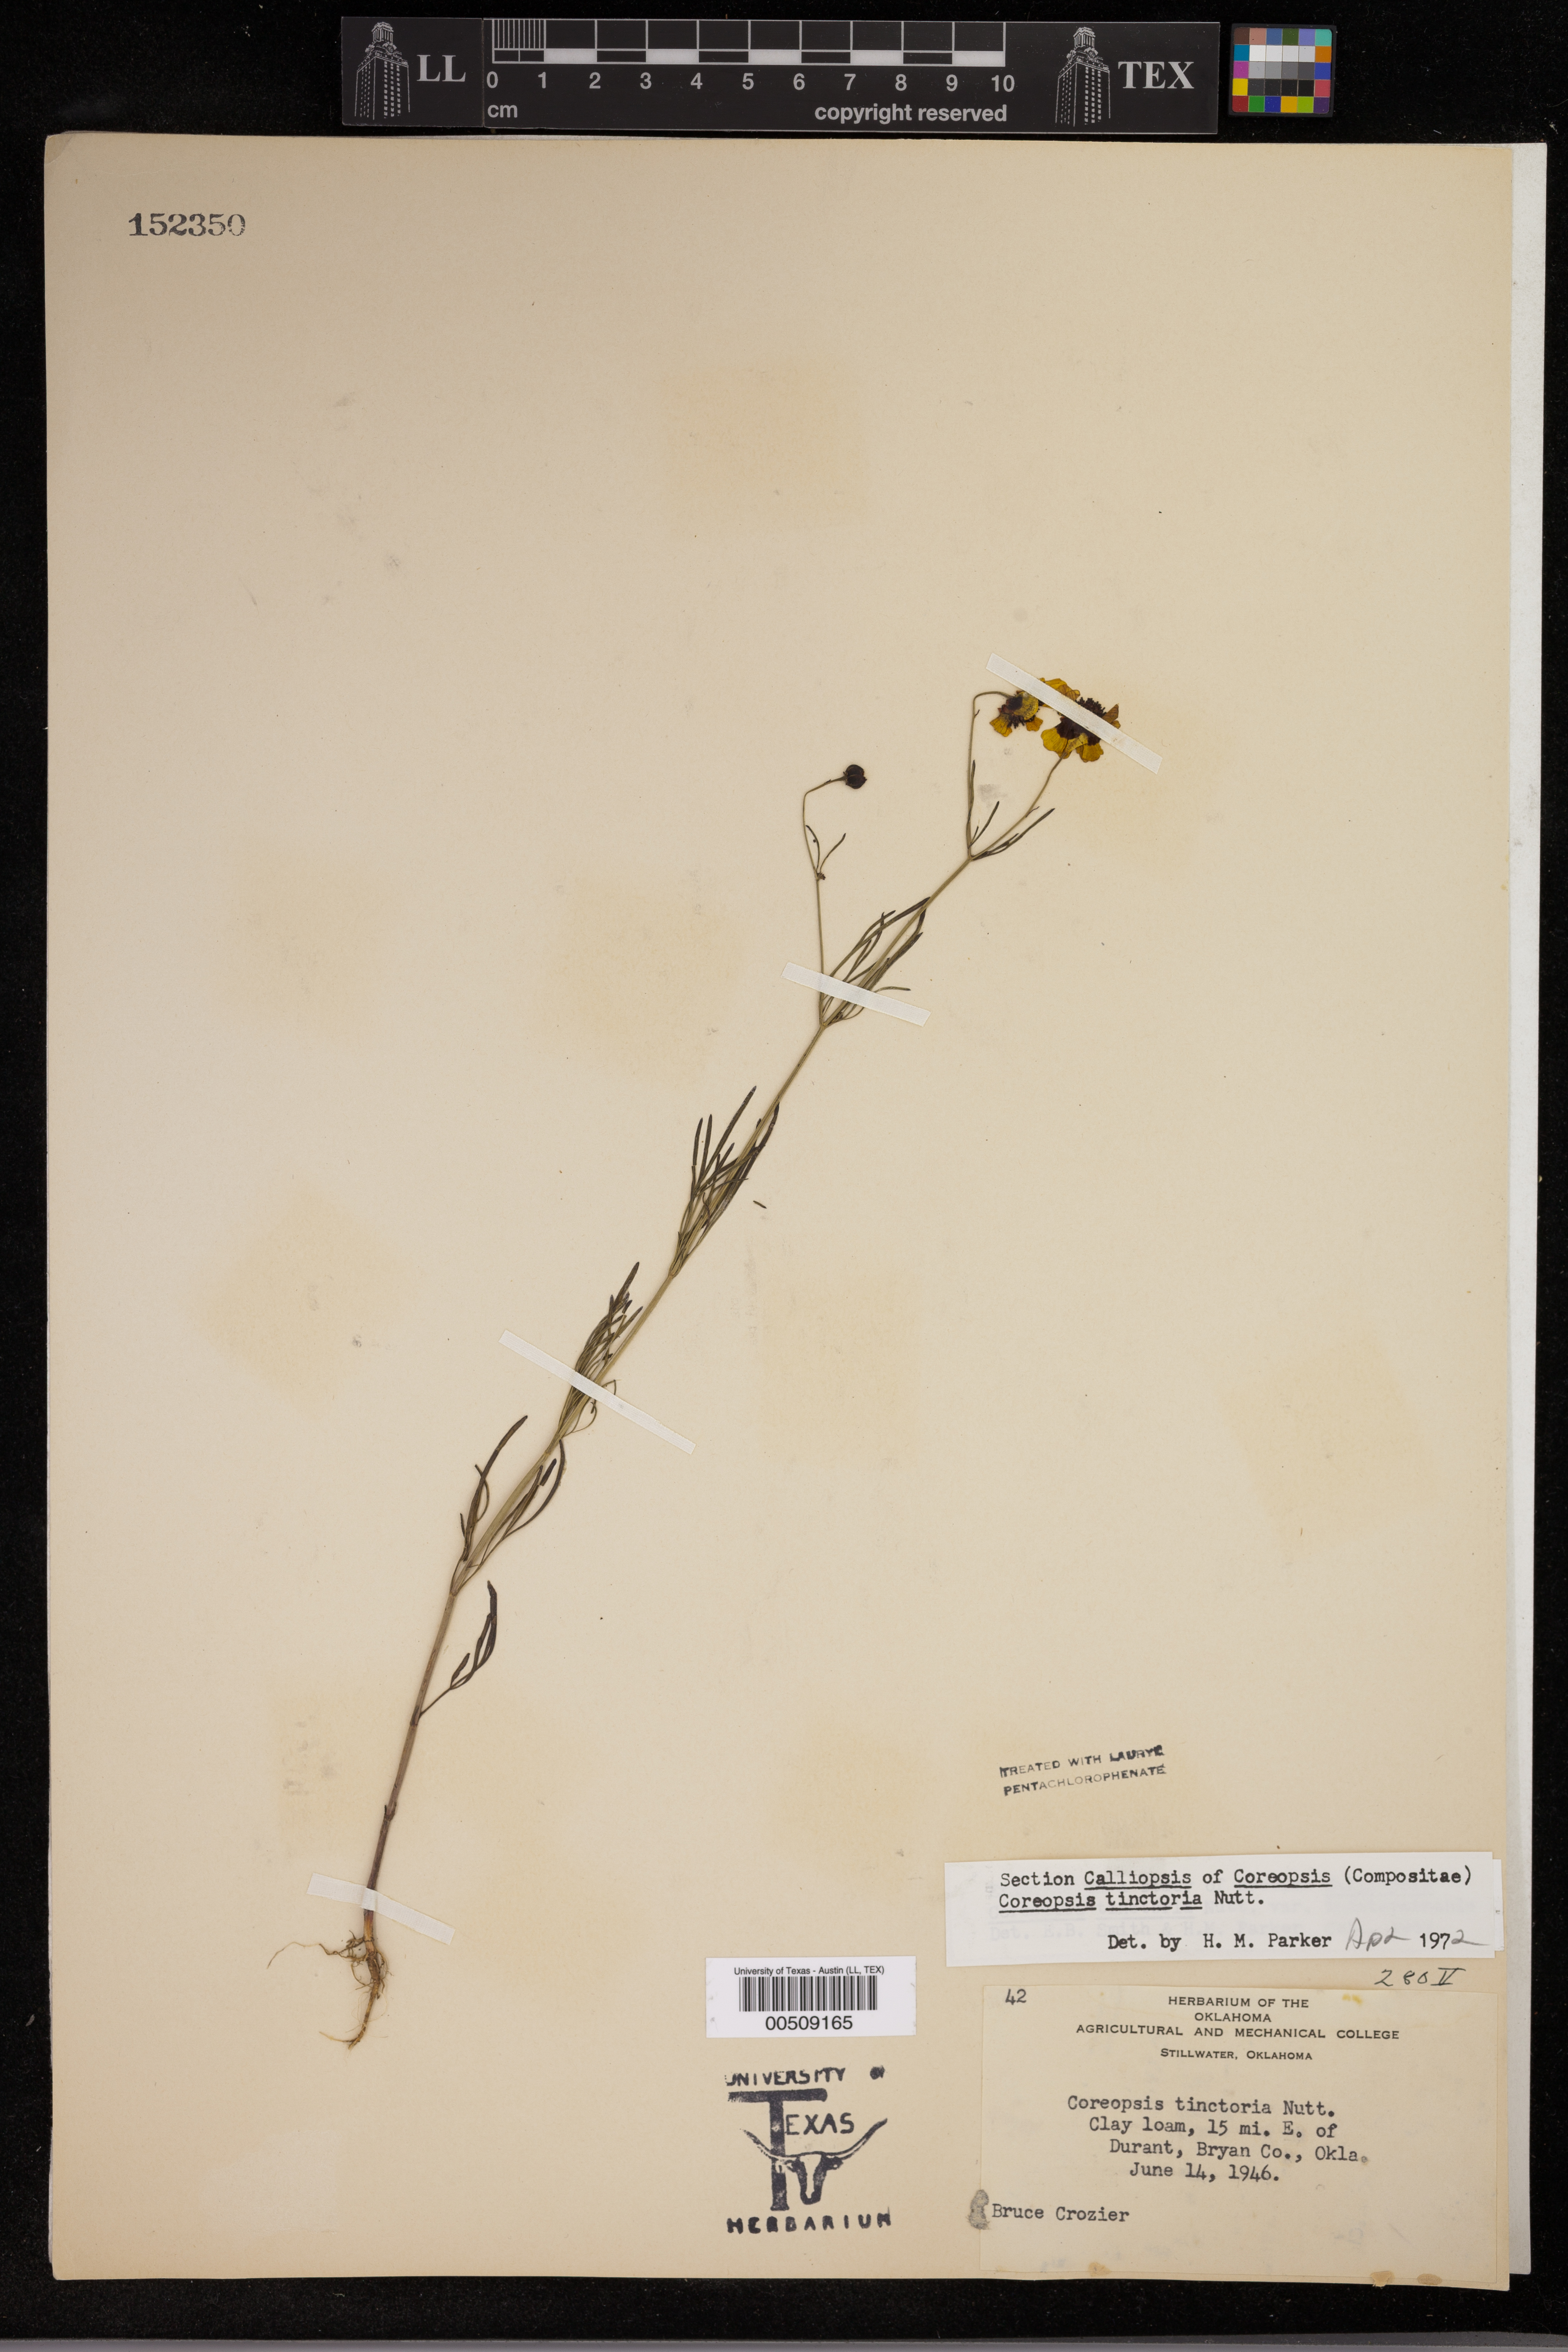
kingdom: Plantae
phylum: Tracheophyta
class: Magnoliopsida
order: Asterales
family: Asteraceae
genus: Coreopsis
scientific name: Coreopsis tinctoria
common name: Garden tickseed
